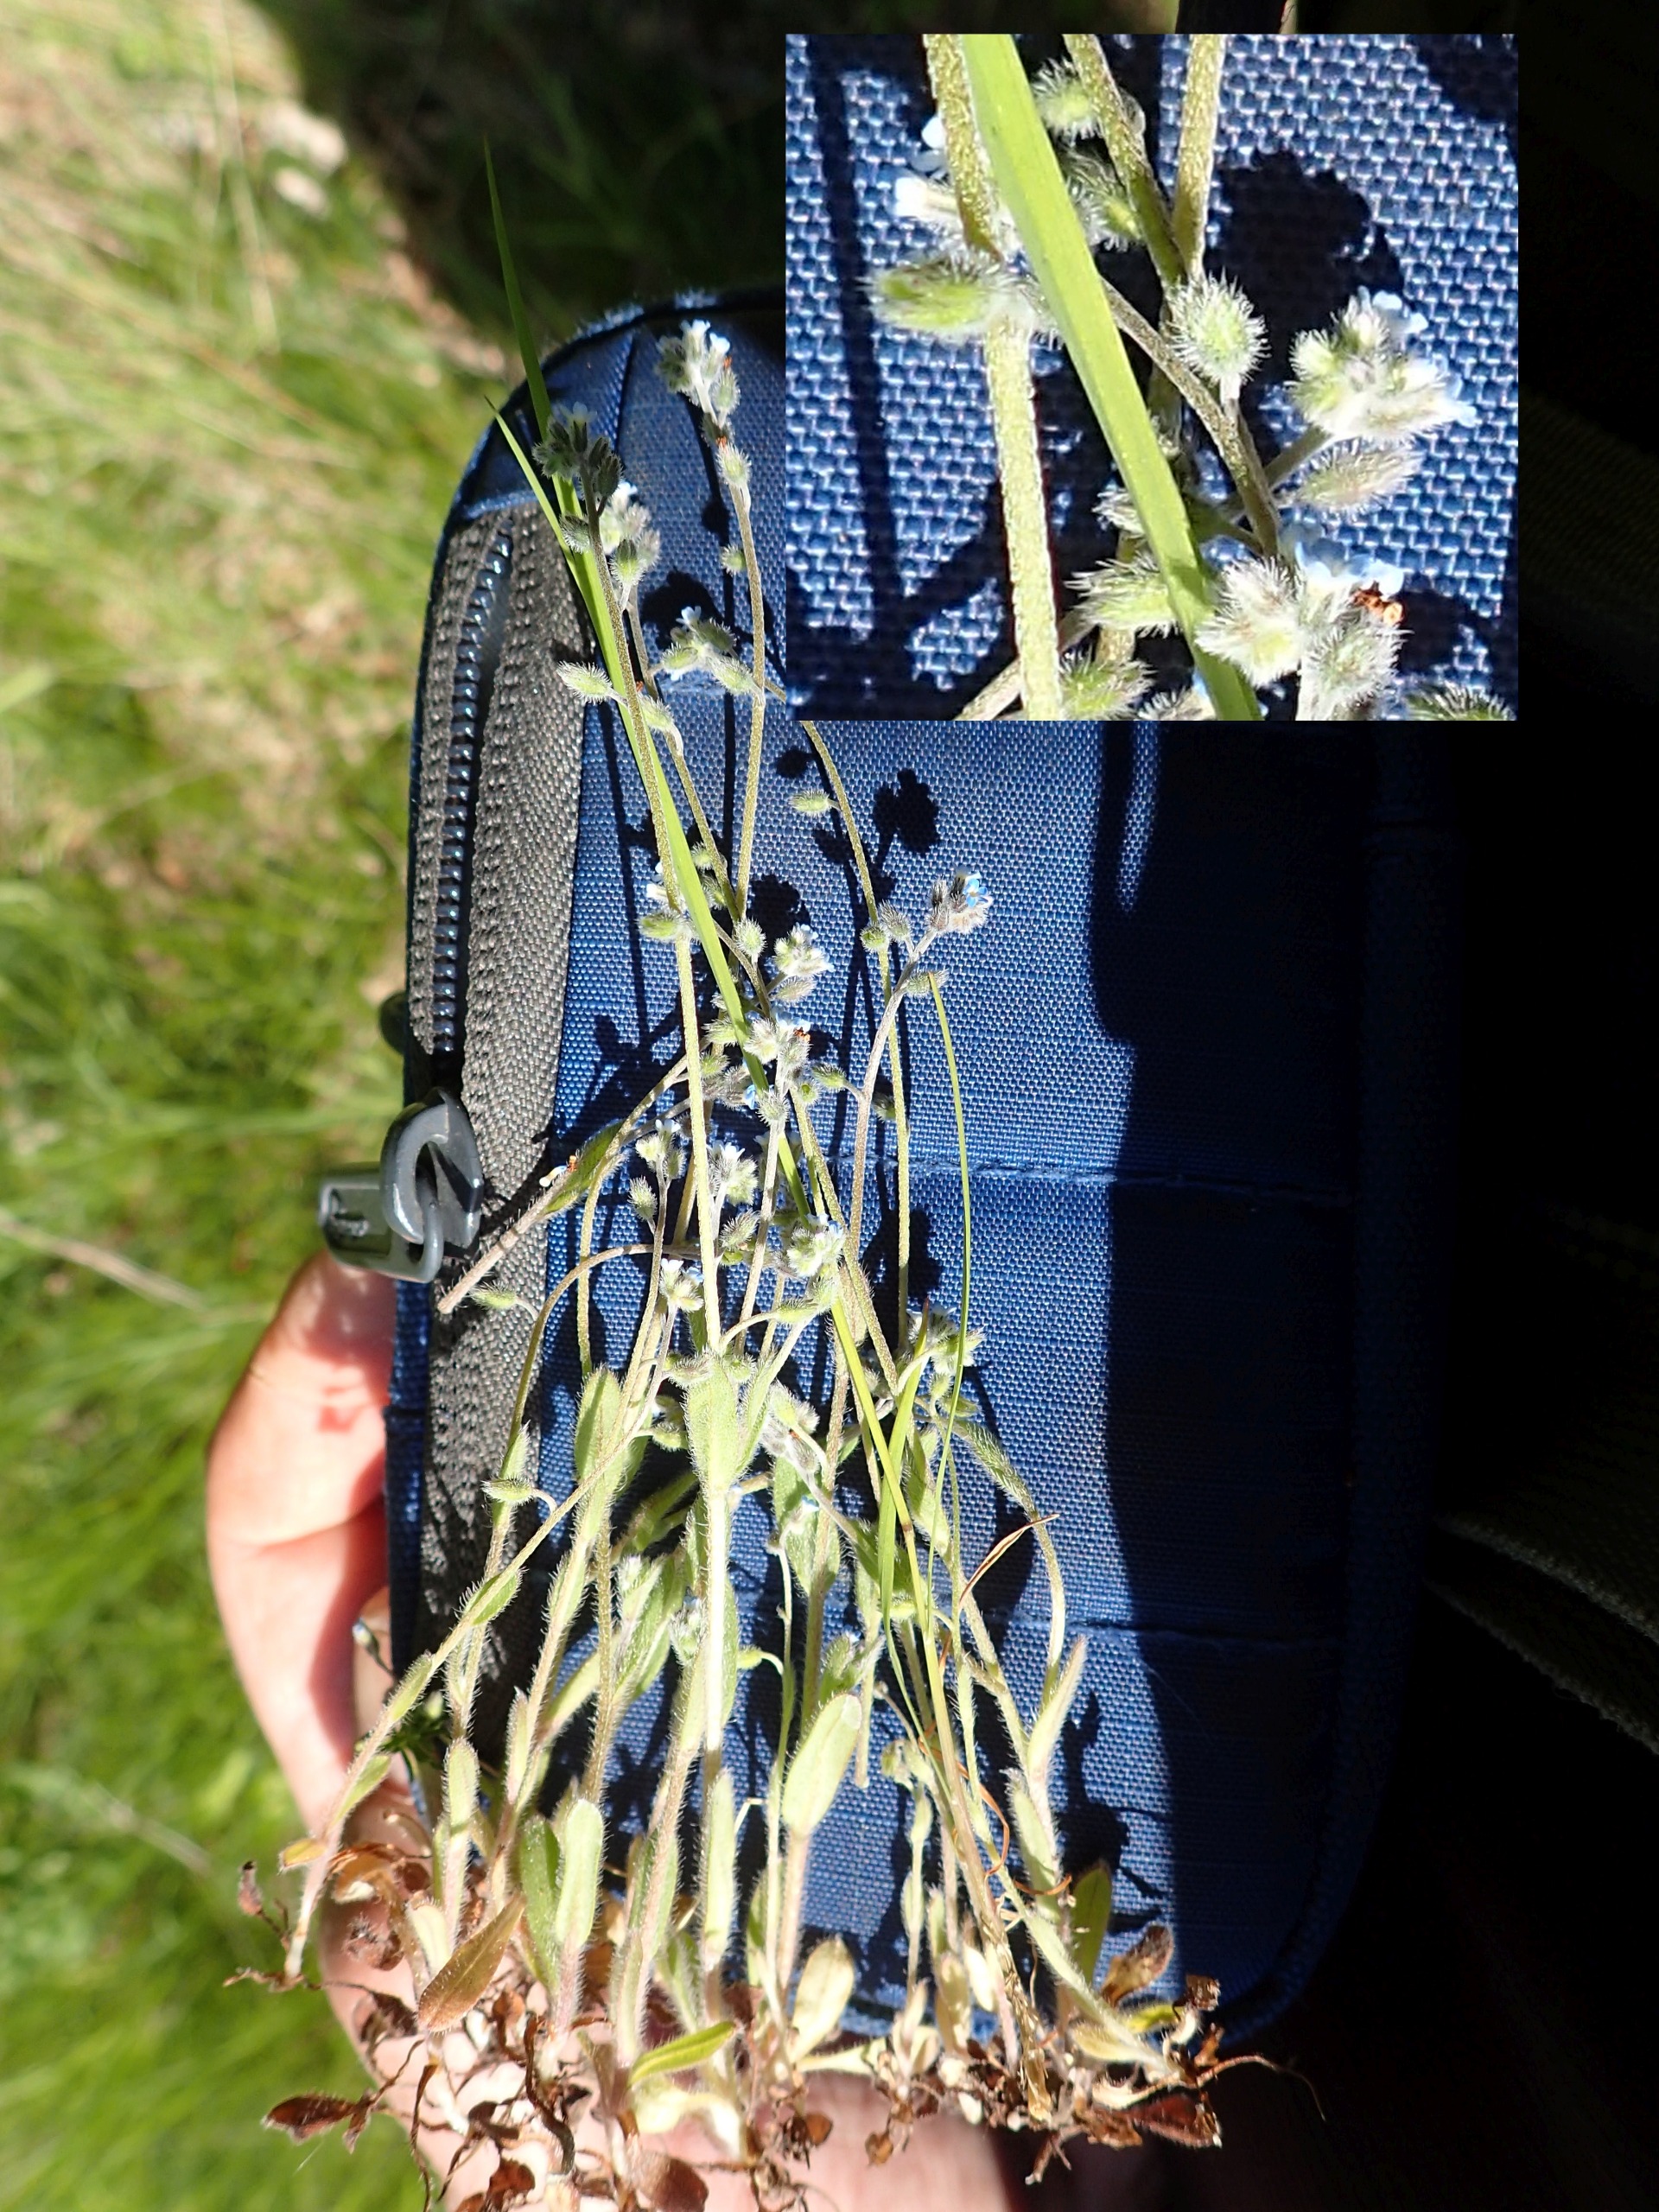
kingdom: Plantae
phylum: Tracheophyta
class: Magnoliopsida
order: Boraginales
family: Boraginaceae
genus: Myosotis
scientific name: Myosotis ramosissima
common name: Bakke-forglemmigej
